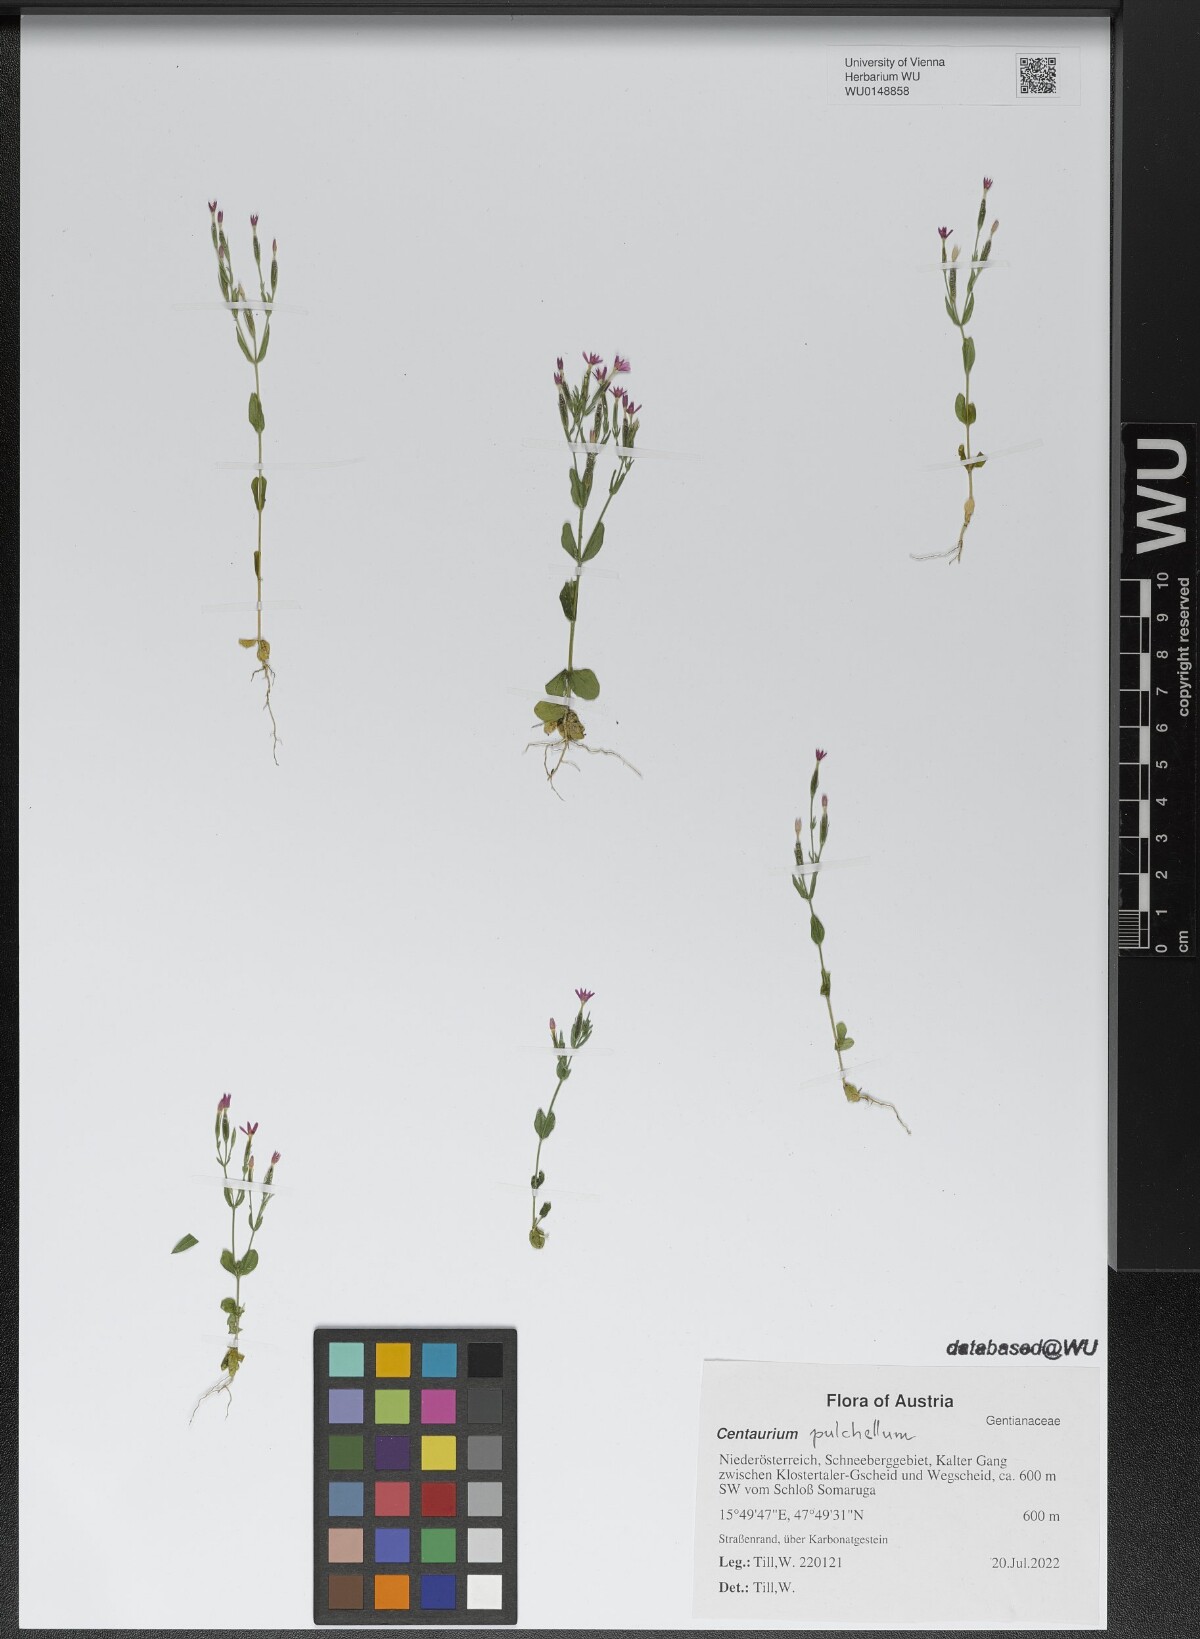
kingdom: Plantae
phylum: Tracheophyta
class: Magnoliopsida
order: Gentianales
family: Gentianaceae
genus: Centaurium
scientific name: Centaurium pulchellum
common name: Lesser centaury
